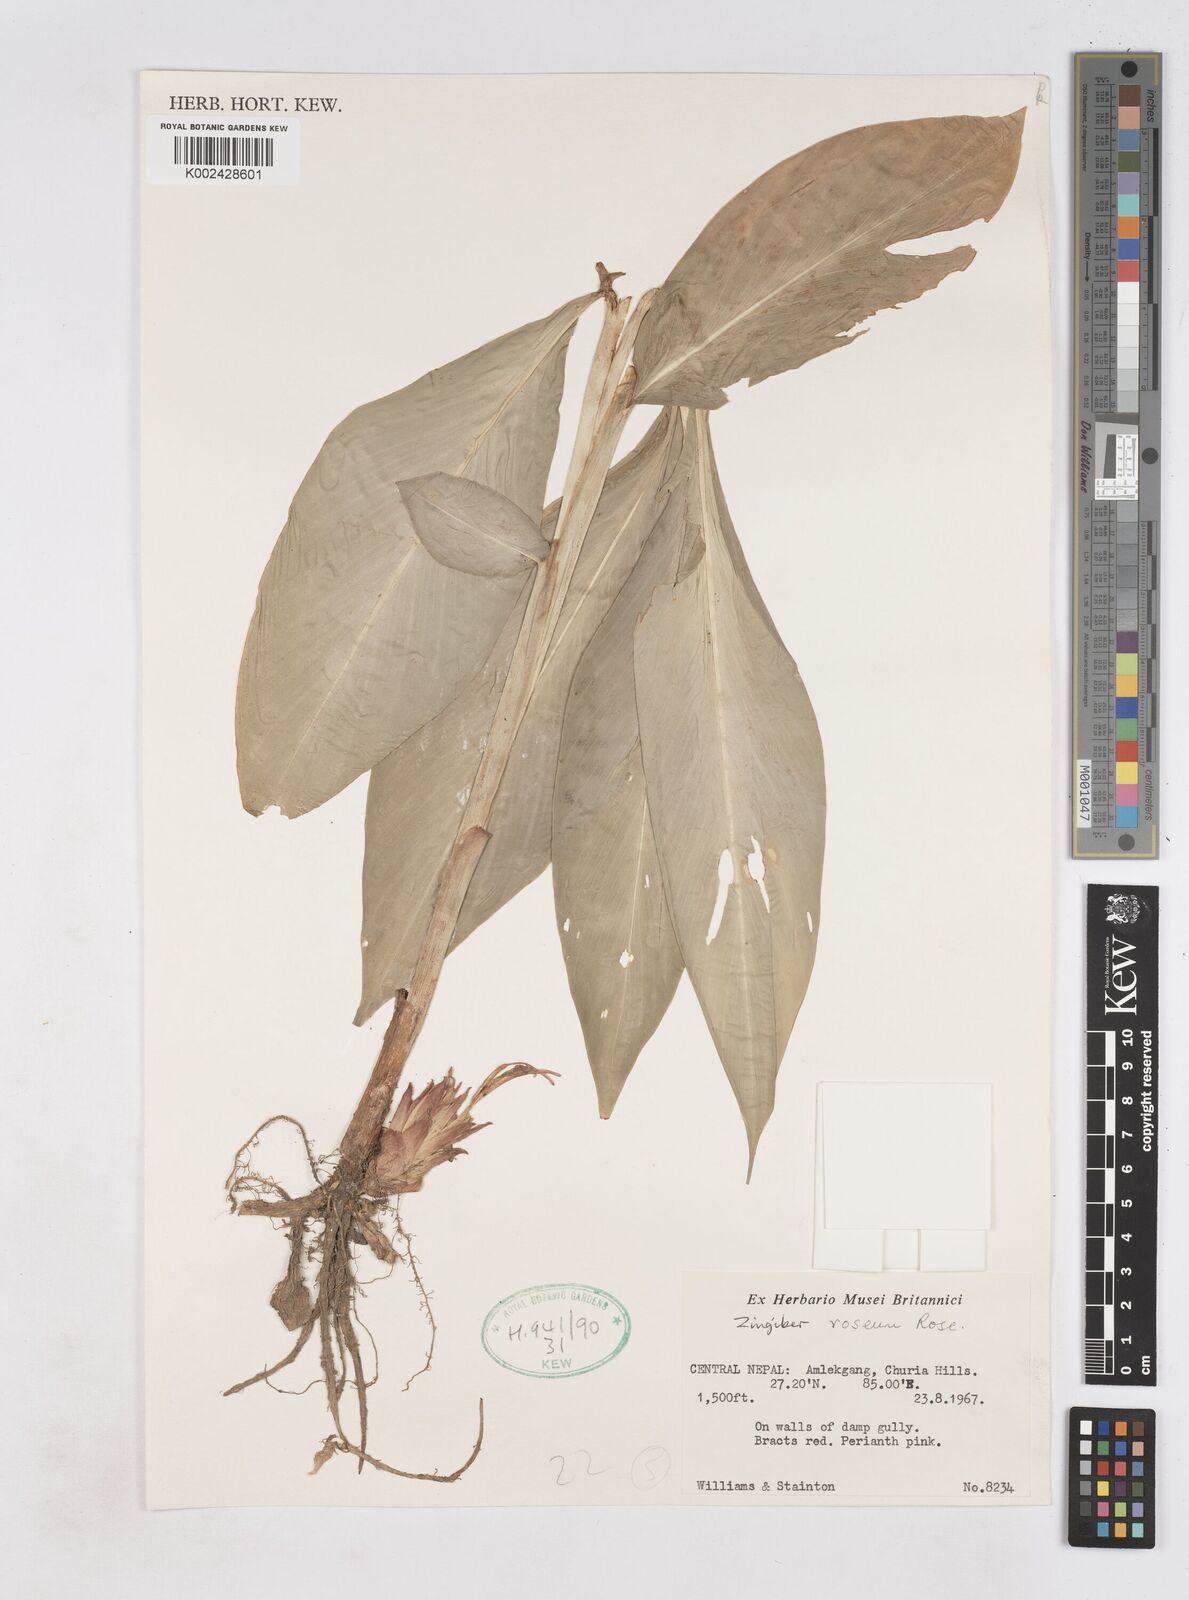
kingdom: Plantae
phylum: Tracheophyta
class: Liliopsida
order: Zingiberales
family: Zingiberaceae
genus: Zingiber
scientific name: Zingiber roseum
